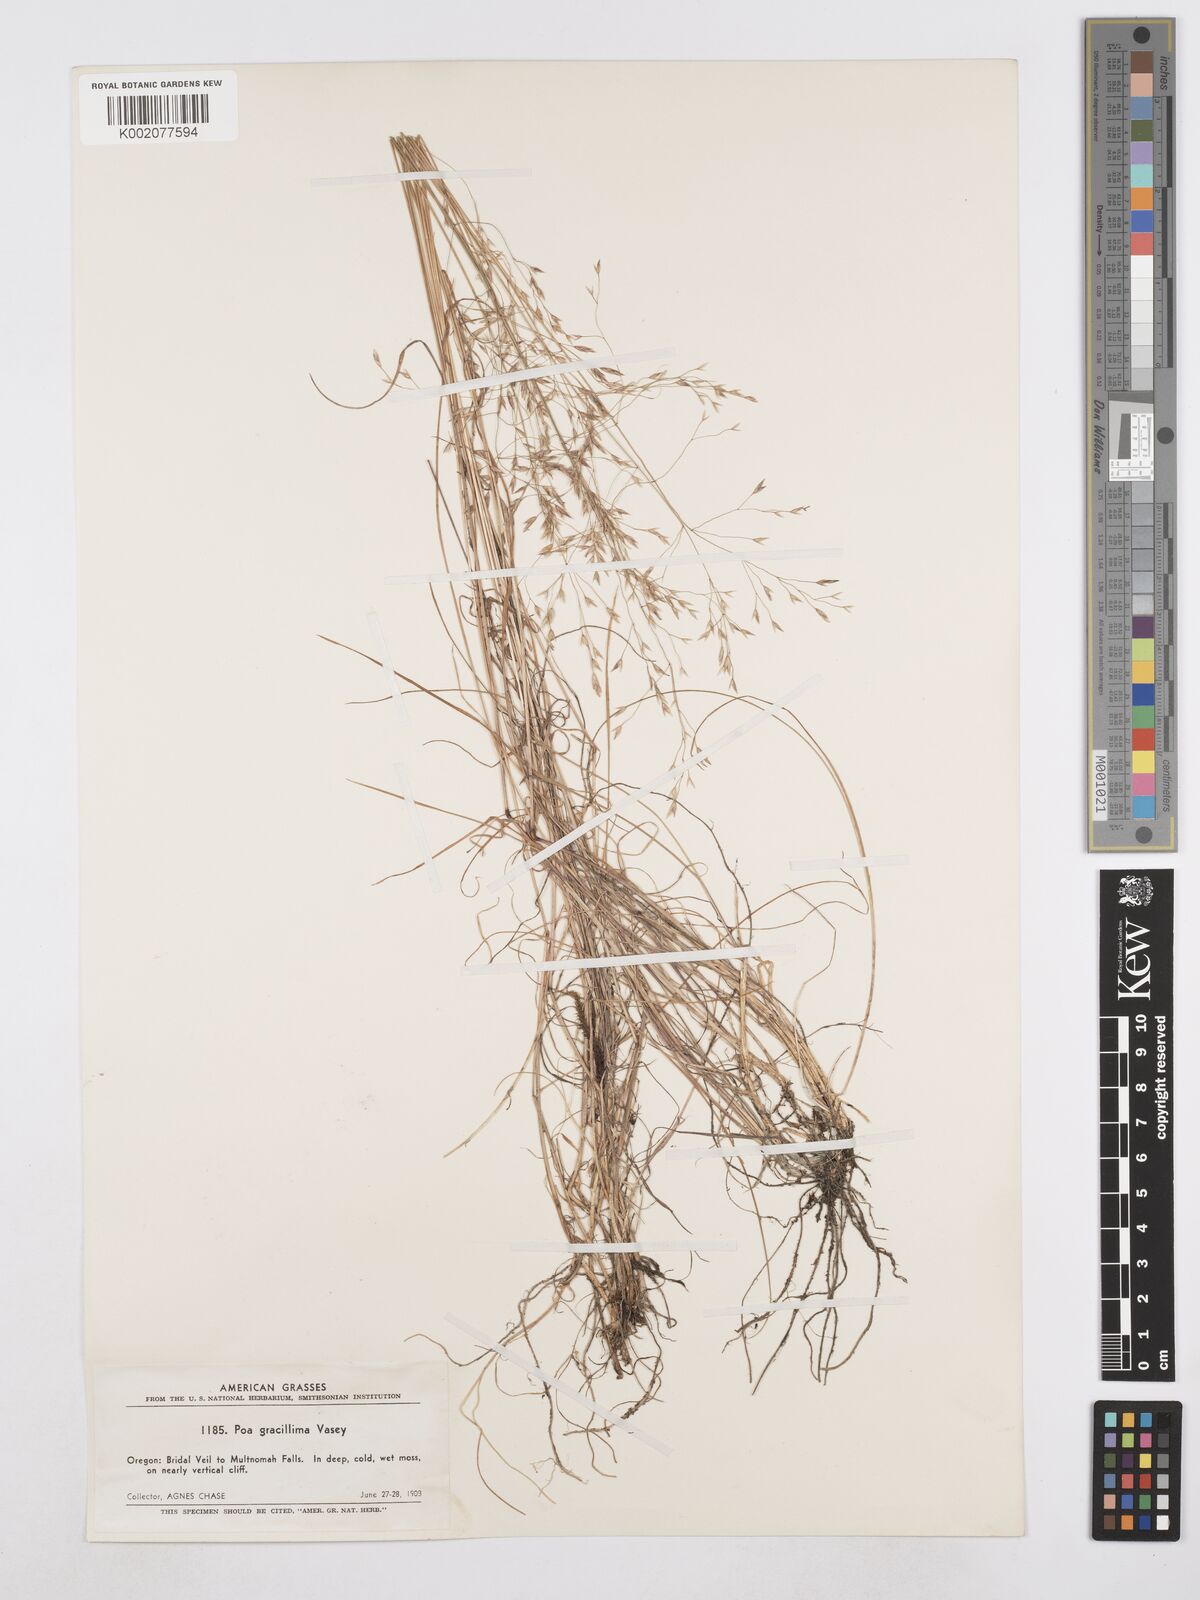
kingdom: Plantae
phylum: Tracheophyta
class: Liliopsida
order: Poales
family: Poaceae
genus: Poa
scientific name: Poa secunda
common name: Sandberg bluegrass
